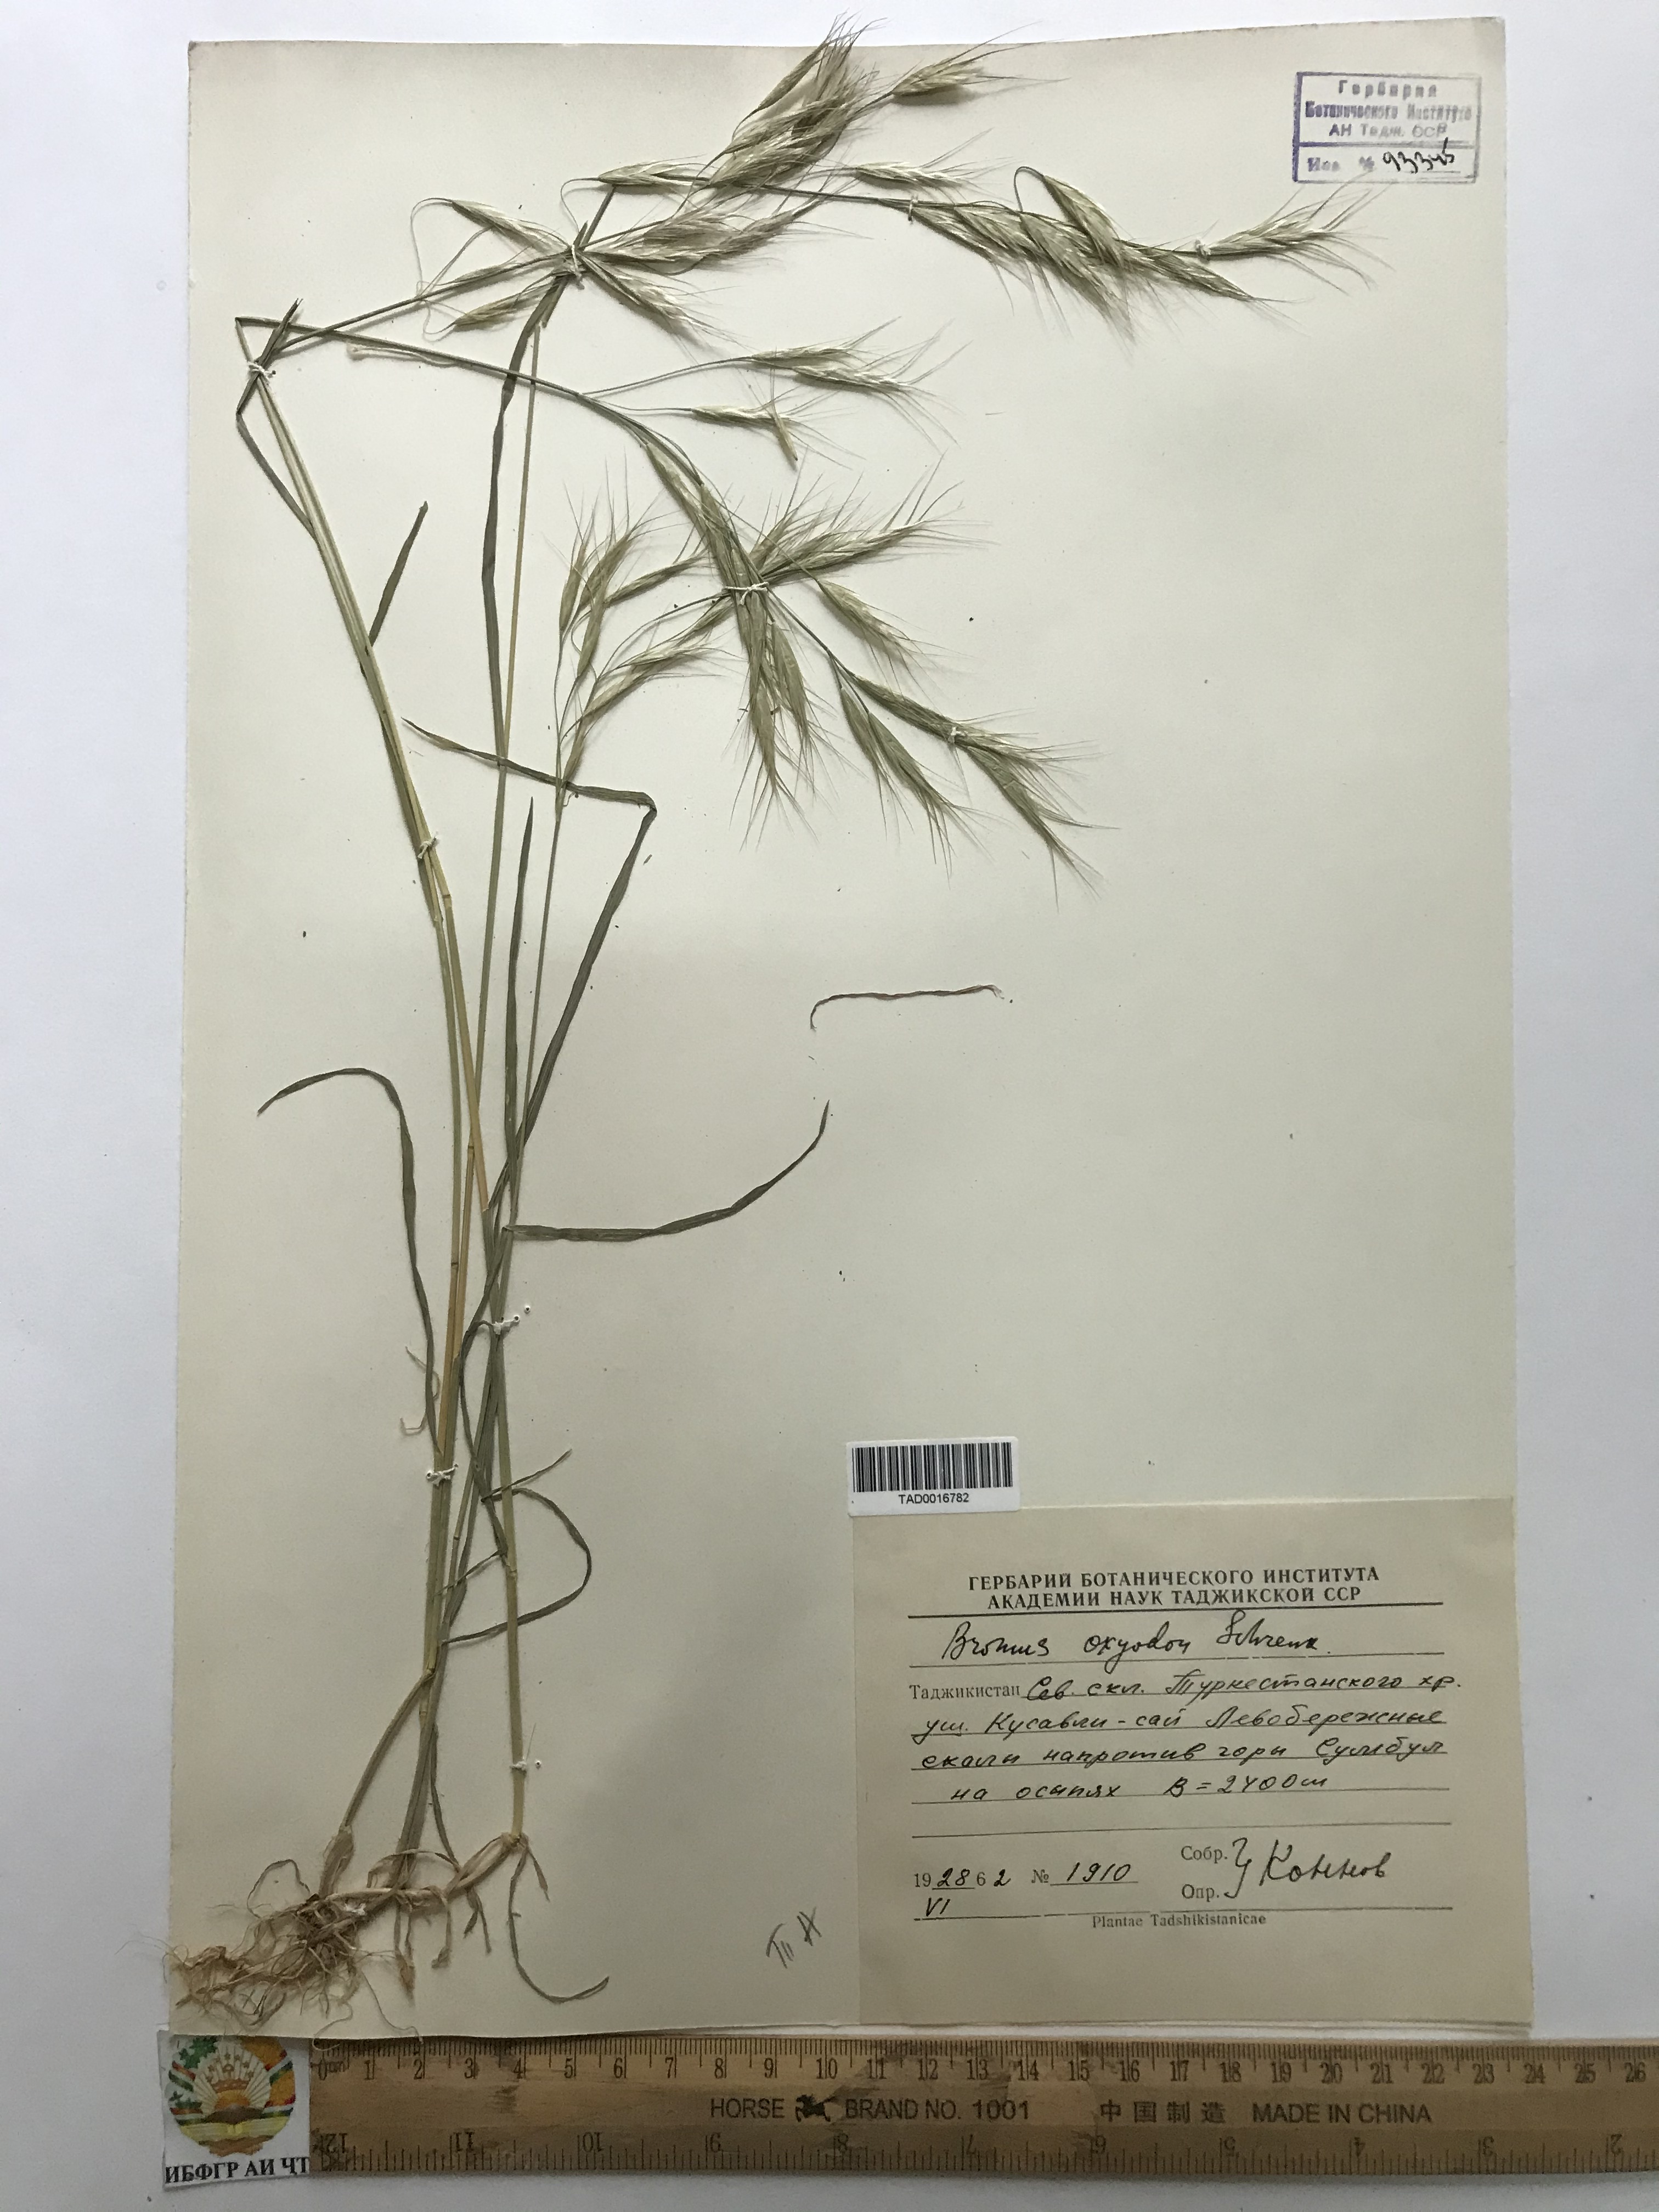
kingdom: Plantae
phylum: Tracheophyta
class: Liliopsida
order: Poales
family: Poaceae
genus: Bromus
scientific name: Bromus oxyodon
